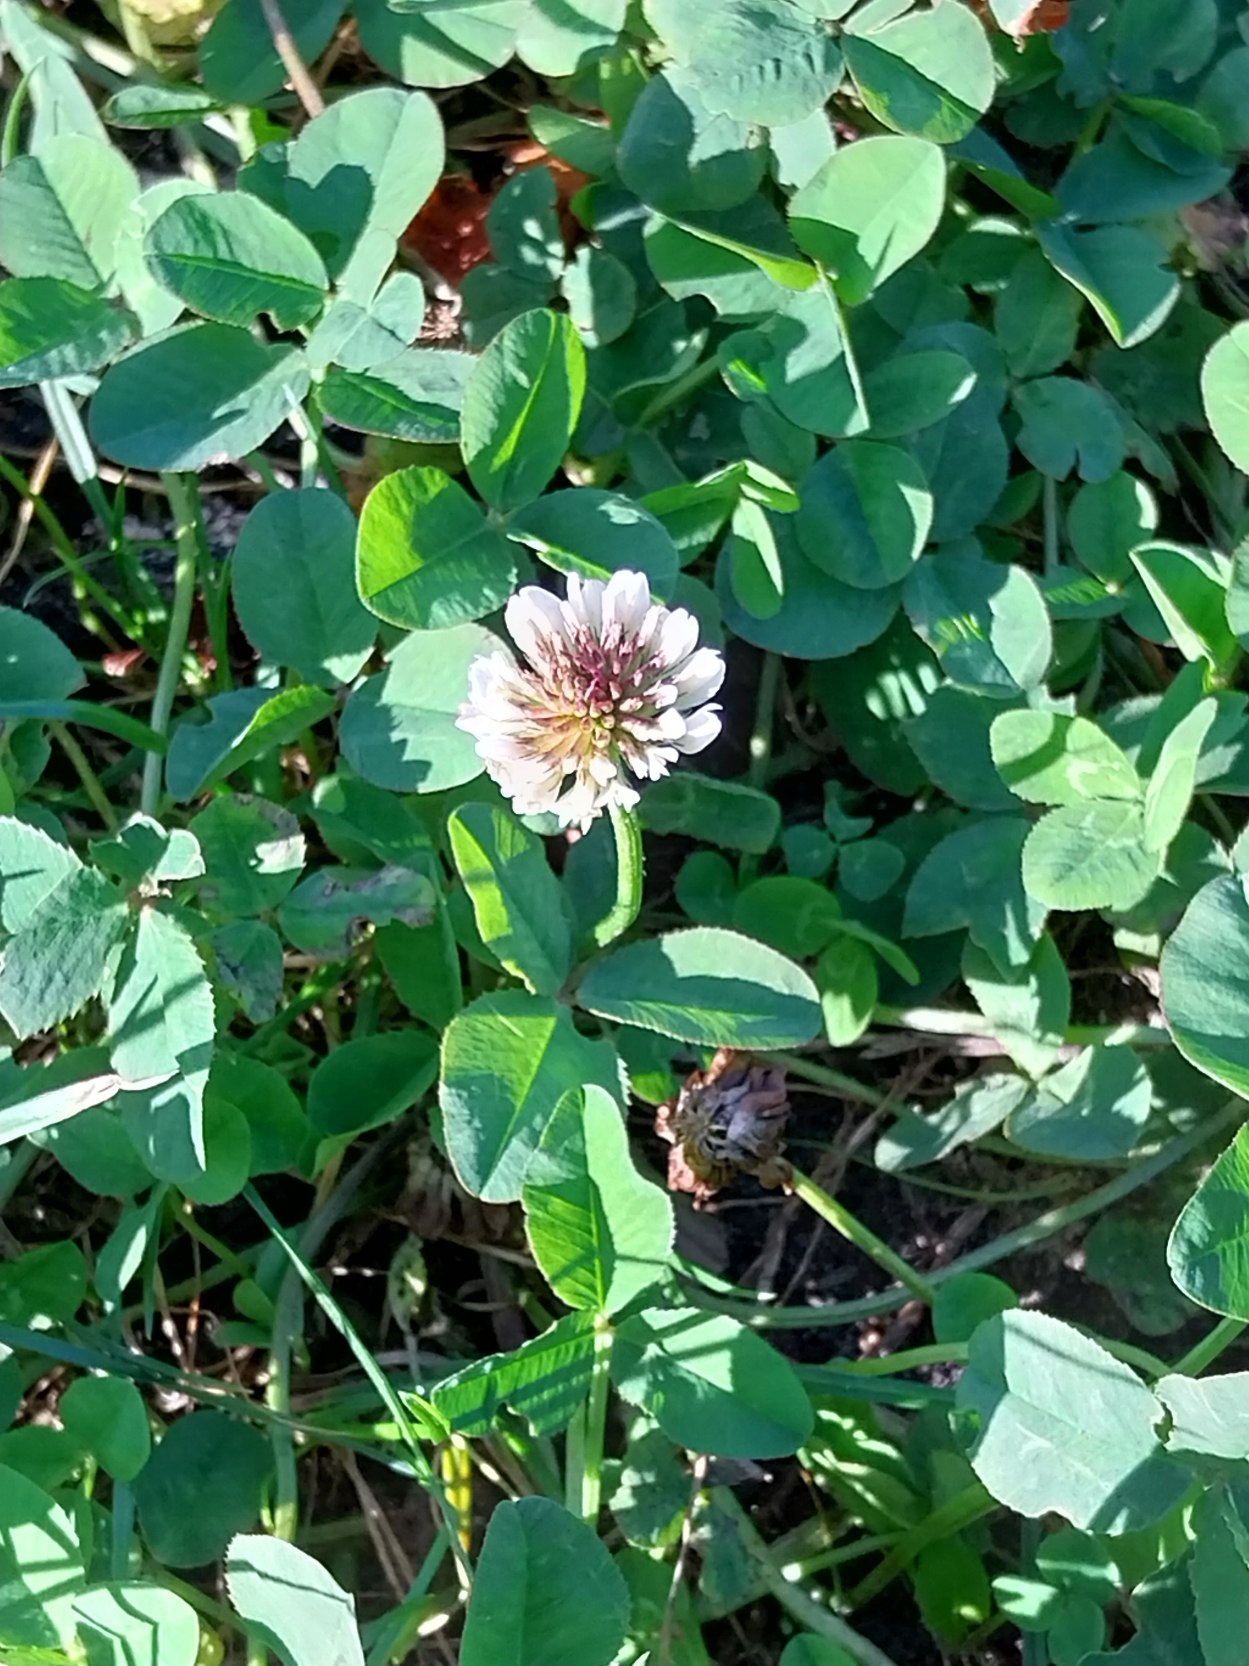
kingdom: Plantae
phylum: Tracheophyta
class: Magnoliopsida
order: Fabales
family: Fabaceae
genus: Trifolium
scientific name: Trifolium repens
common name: Hvid-kløver
